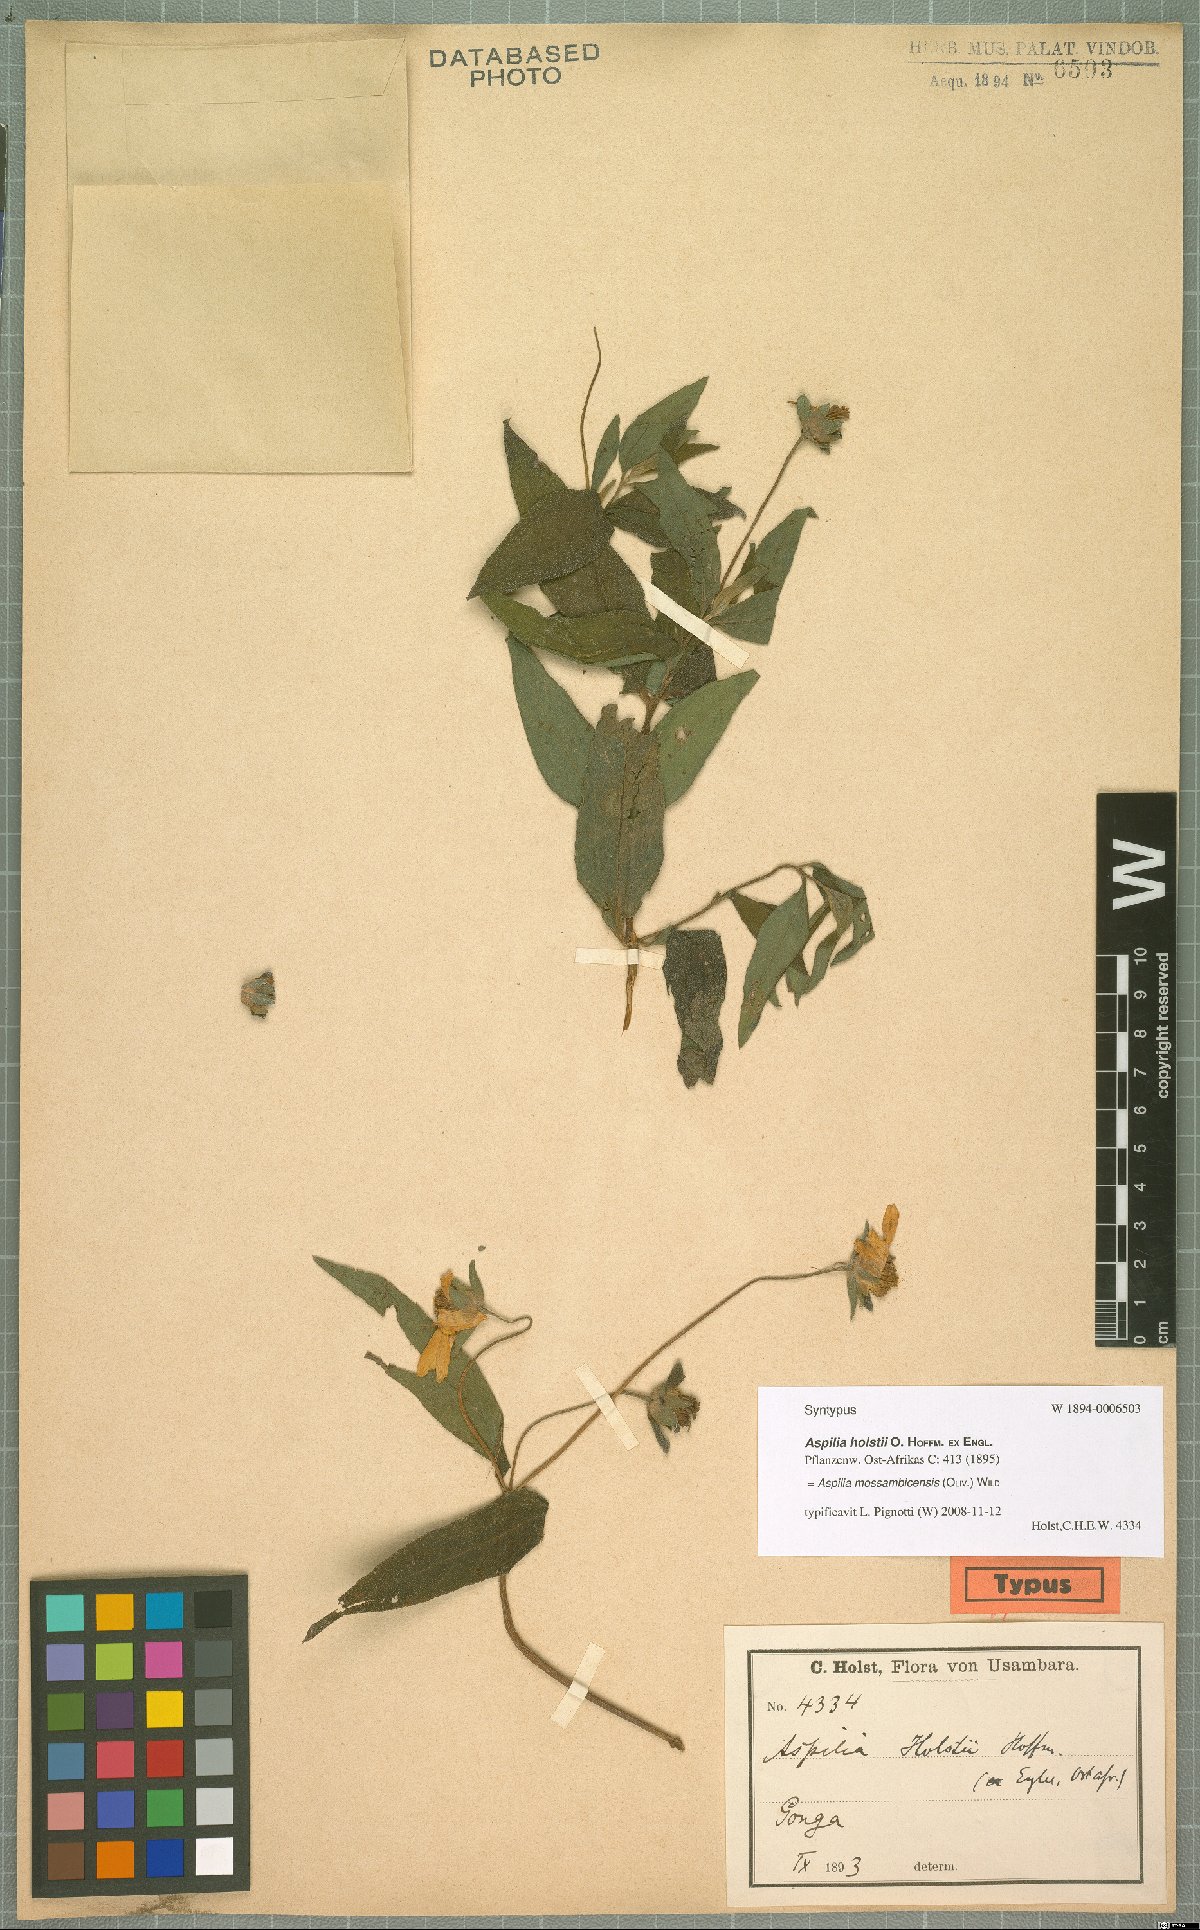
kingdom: Plantae
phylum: Tracheophyta
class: Magnoliopsida
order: Asterales
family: Asteraceae
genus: Aspilia
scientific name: Aspilia mossambicensis
